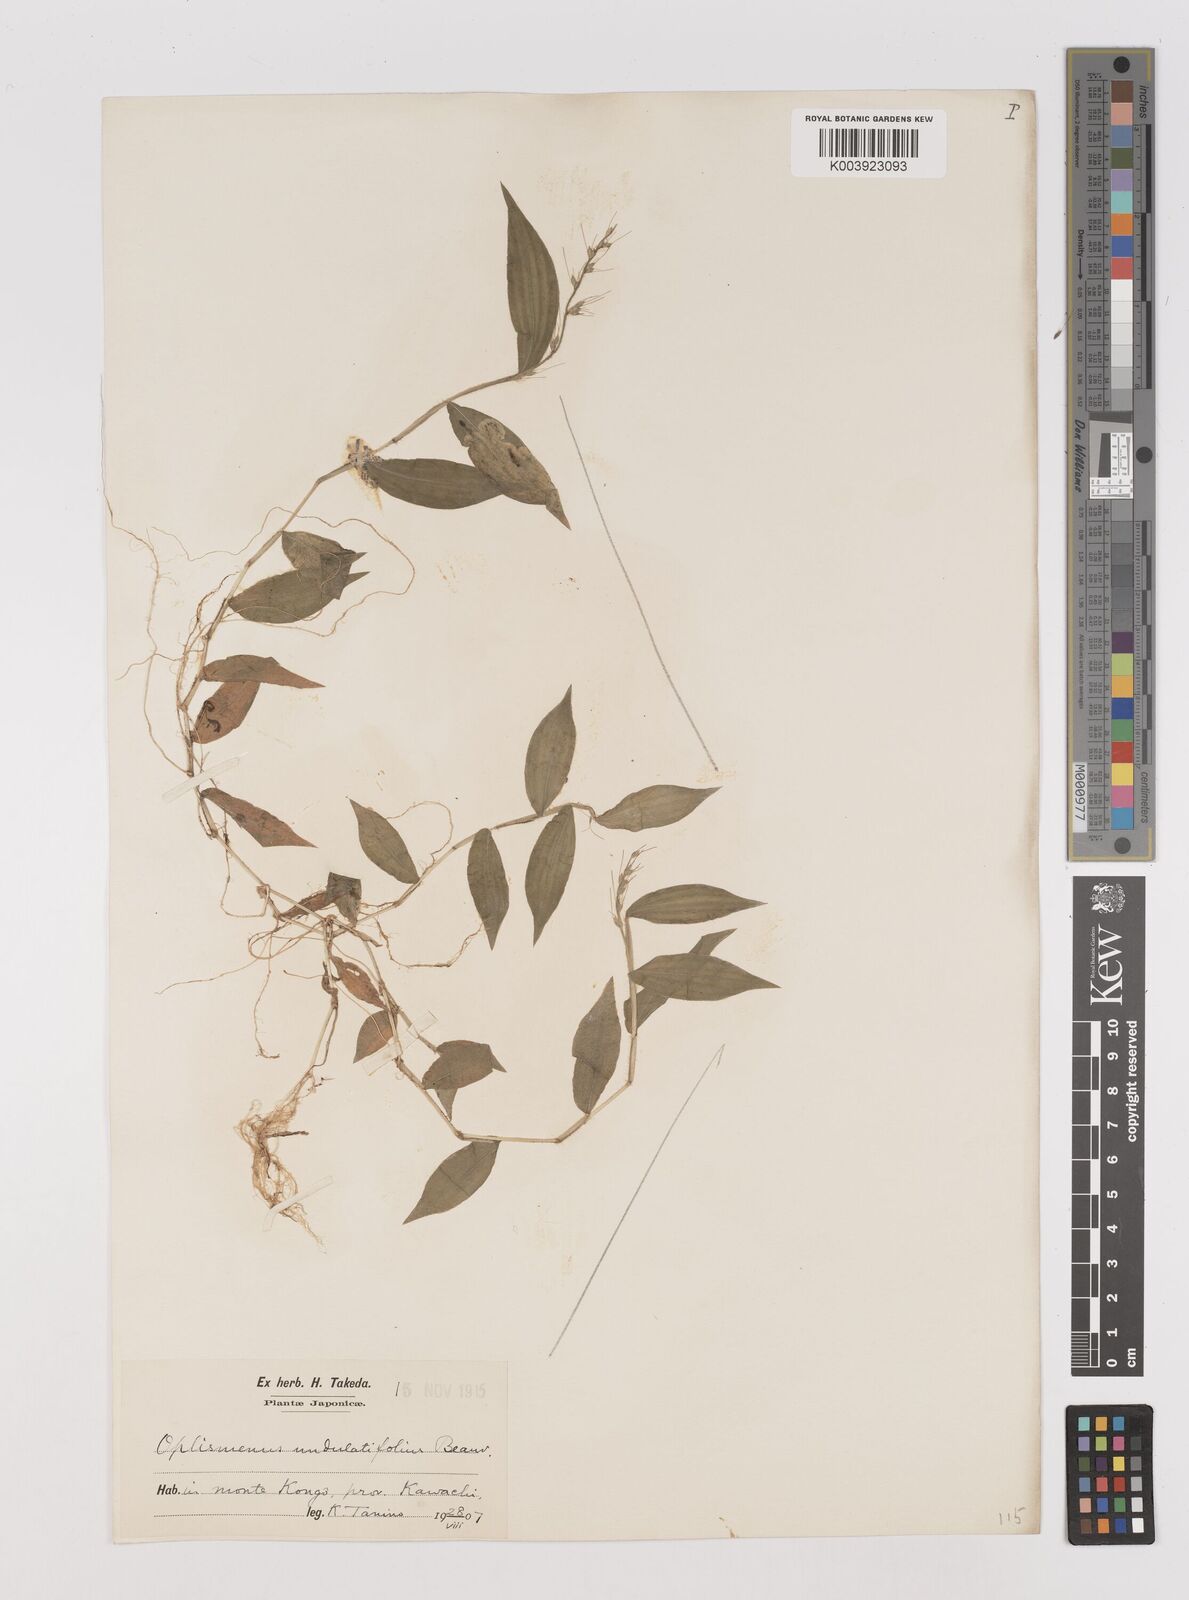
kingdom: Plantae
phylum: Tracheophyta
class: Liliopsida
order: Poales
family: Poaceae
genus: Oplismenus
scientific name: Oplismenus undulatifolius
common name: Wavyleaf basketgrass
